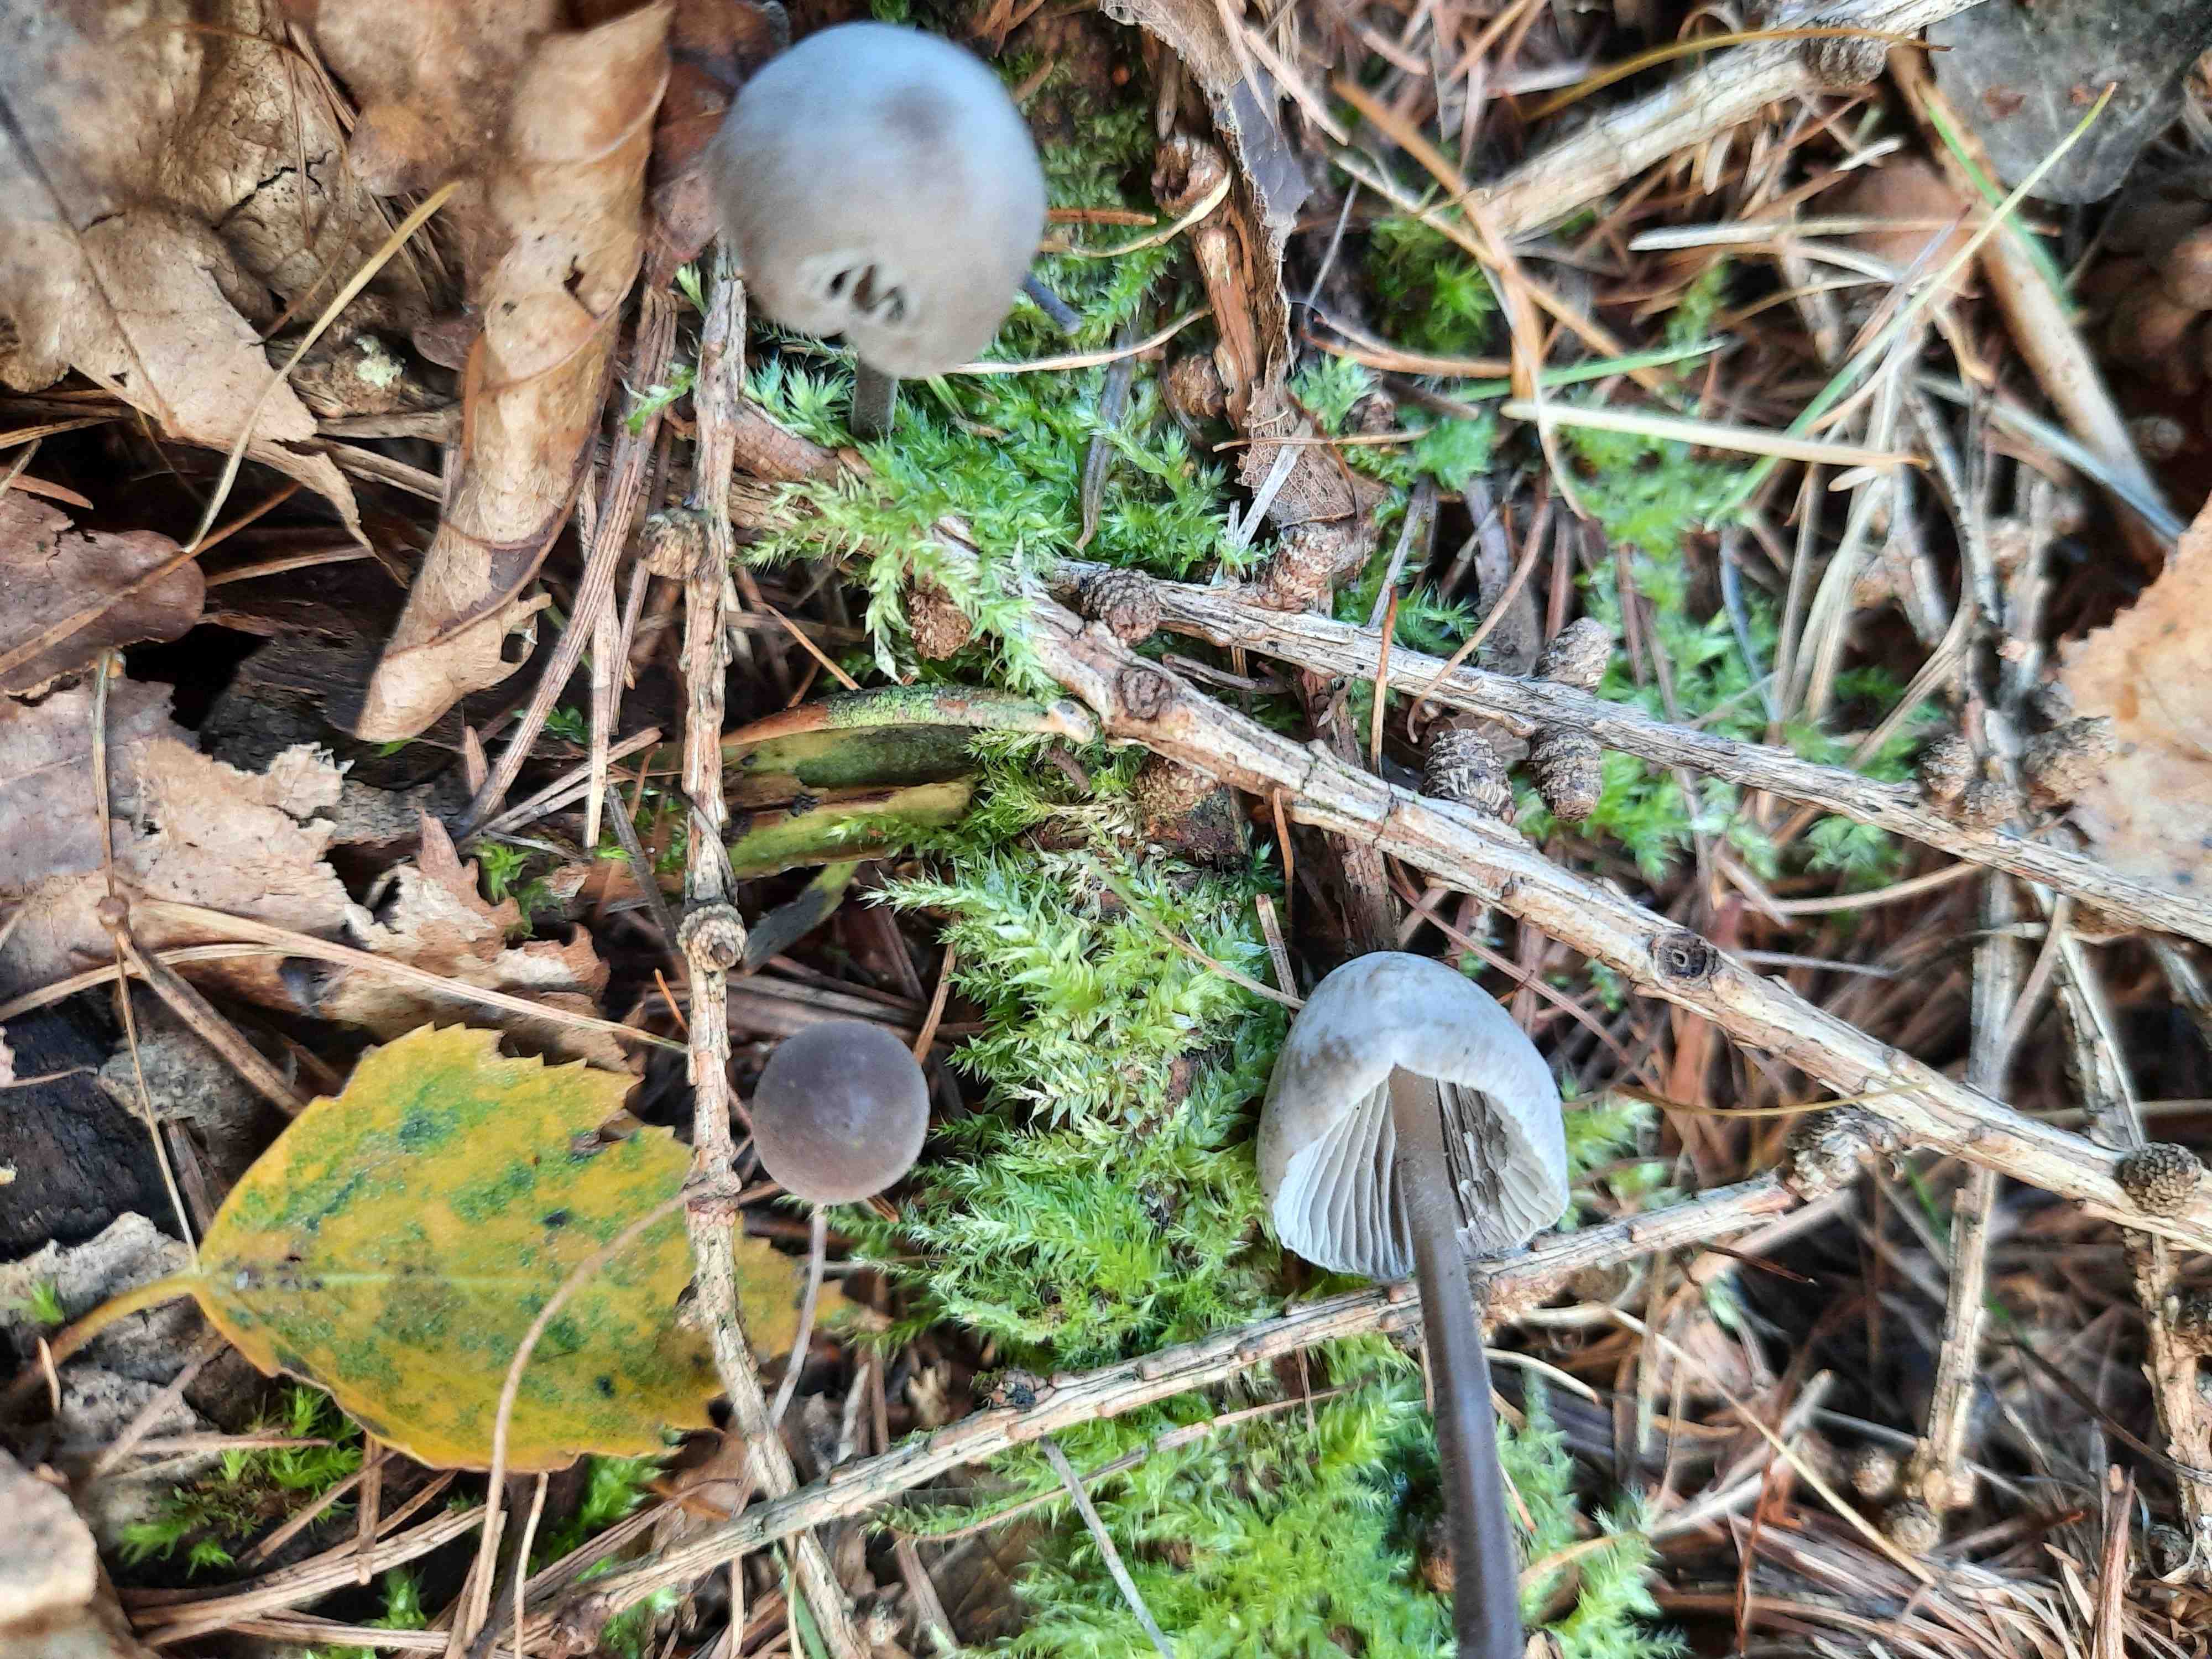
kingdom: Fungi
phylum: Basidiomycota
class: Agaricomycetes
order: Agaricales
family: Mycenaceae
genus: Mycena
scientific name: Mycena leptocephala
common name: klor-huesvamp
